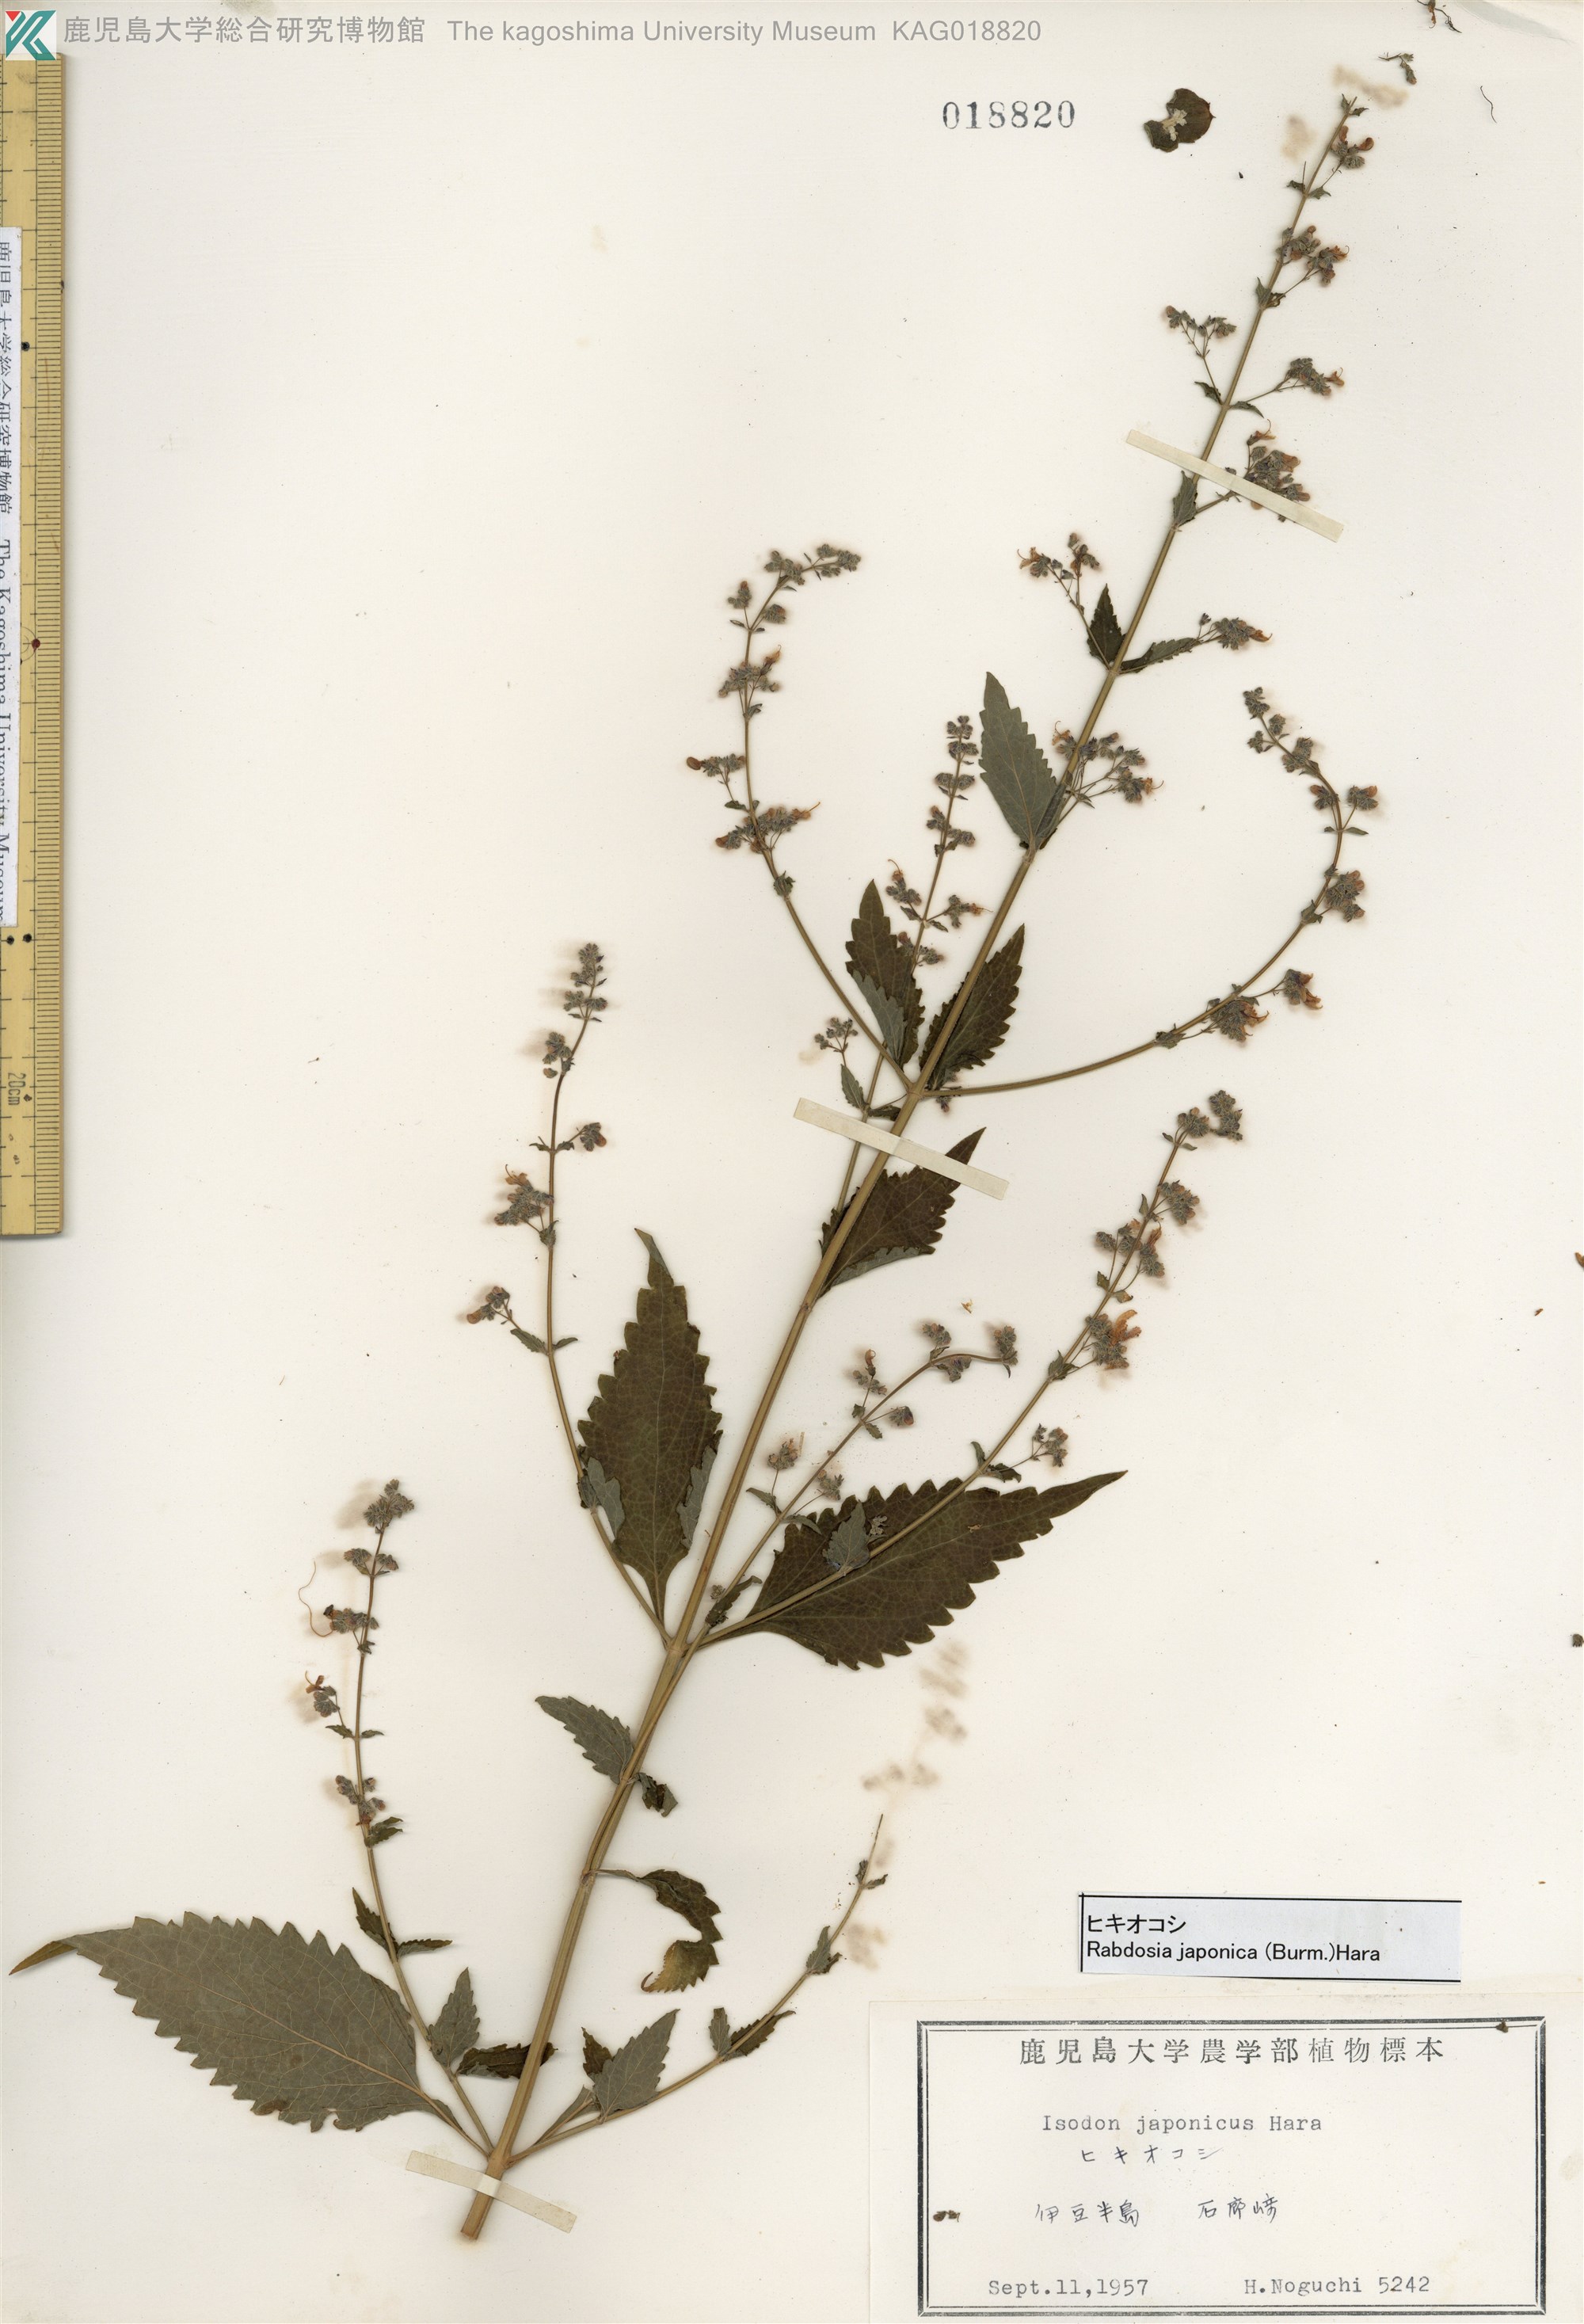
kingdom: Plantae
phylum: Tracheophyta
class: Magnoliopsida
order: Lamiales
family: Lamiaceae
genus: Isodon
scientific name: Isodon japonicus
